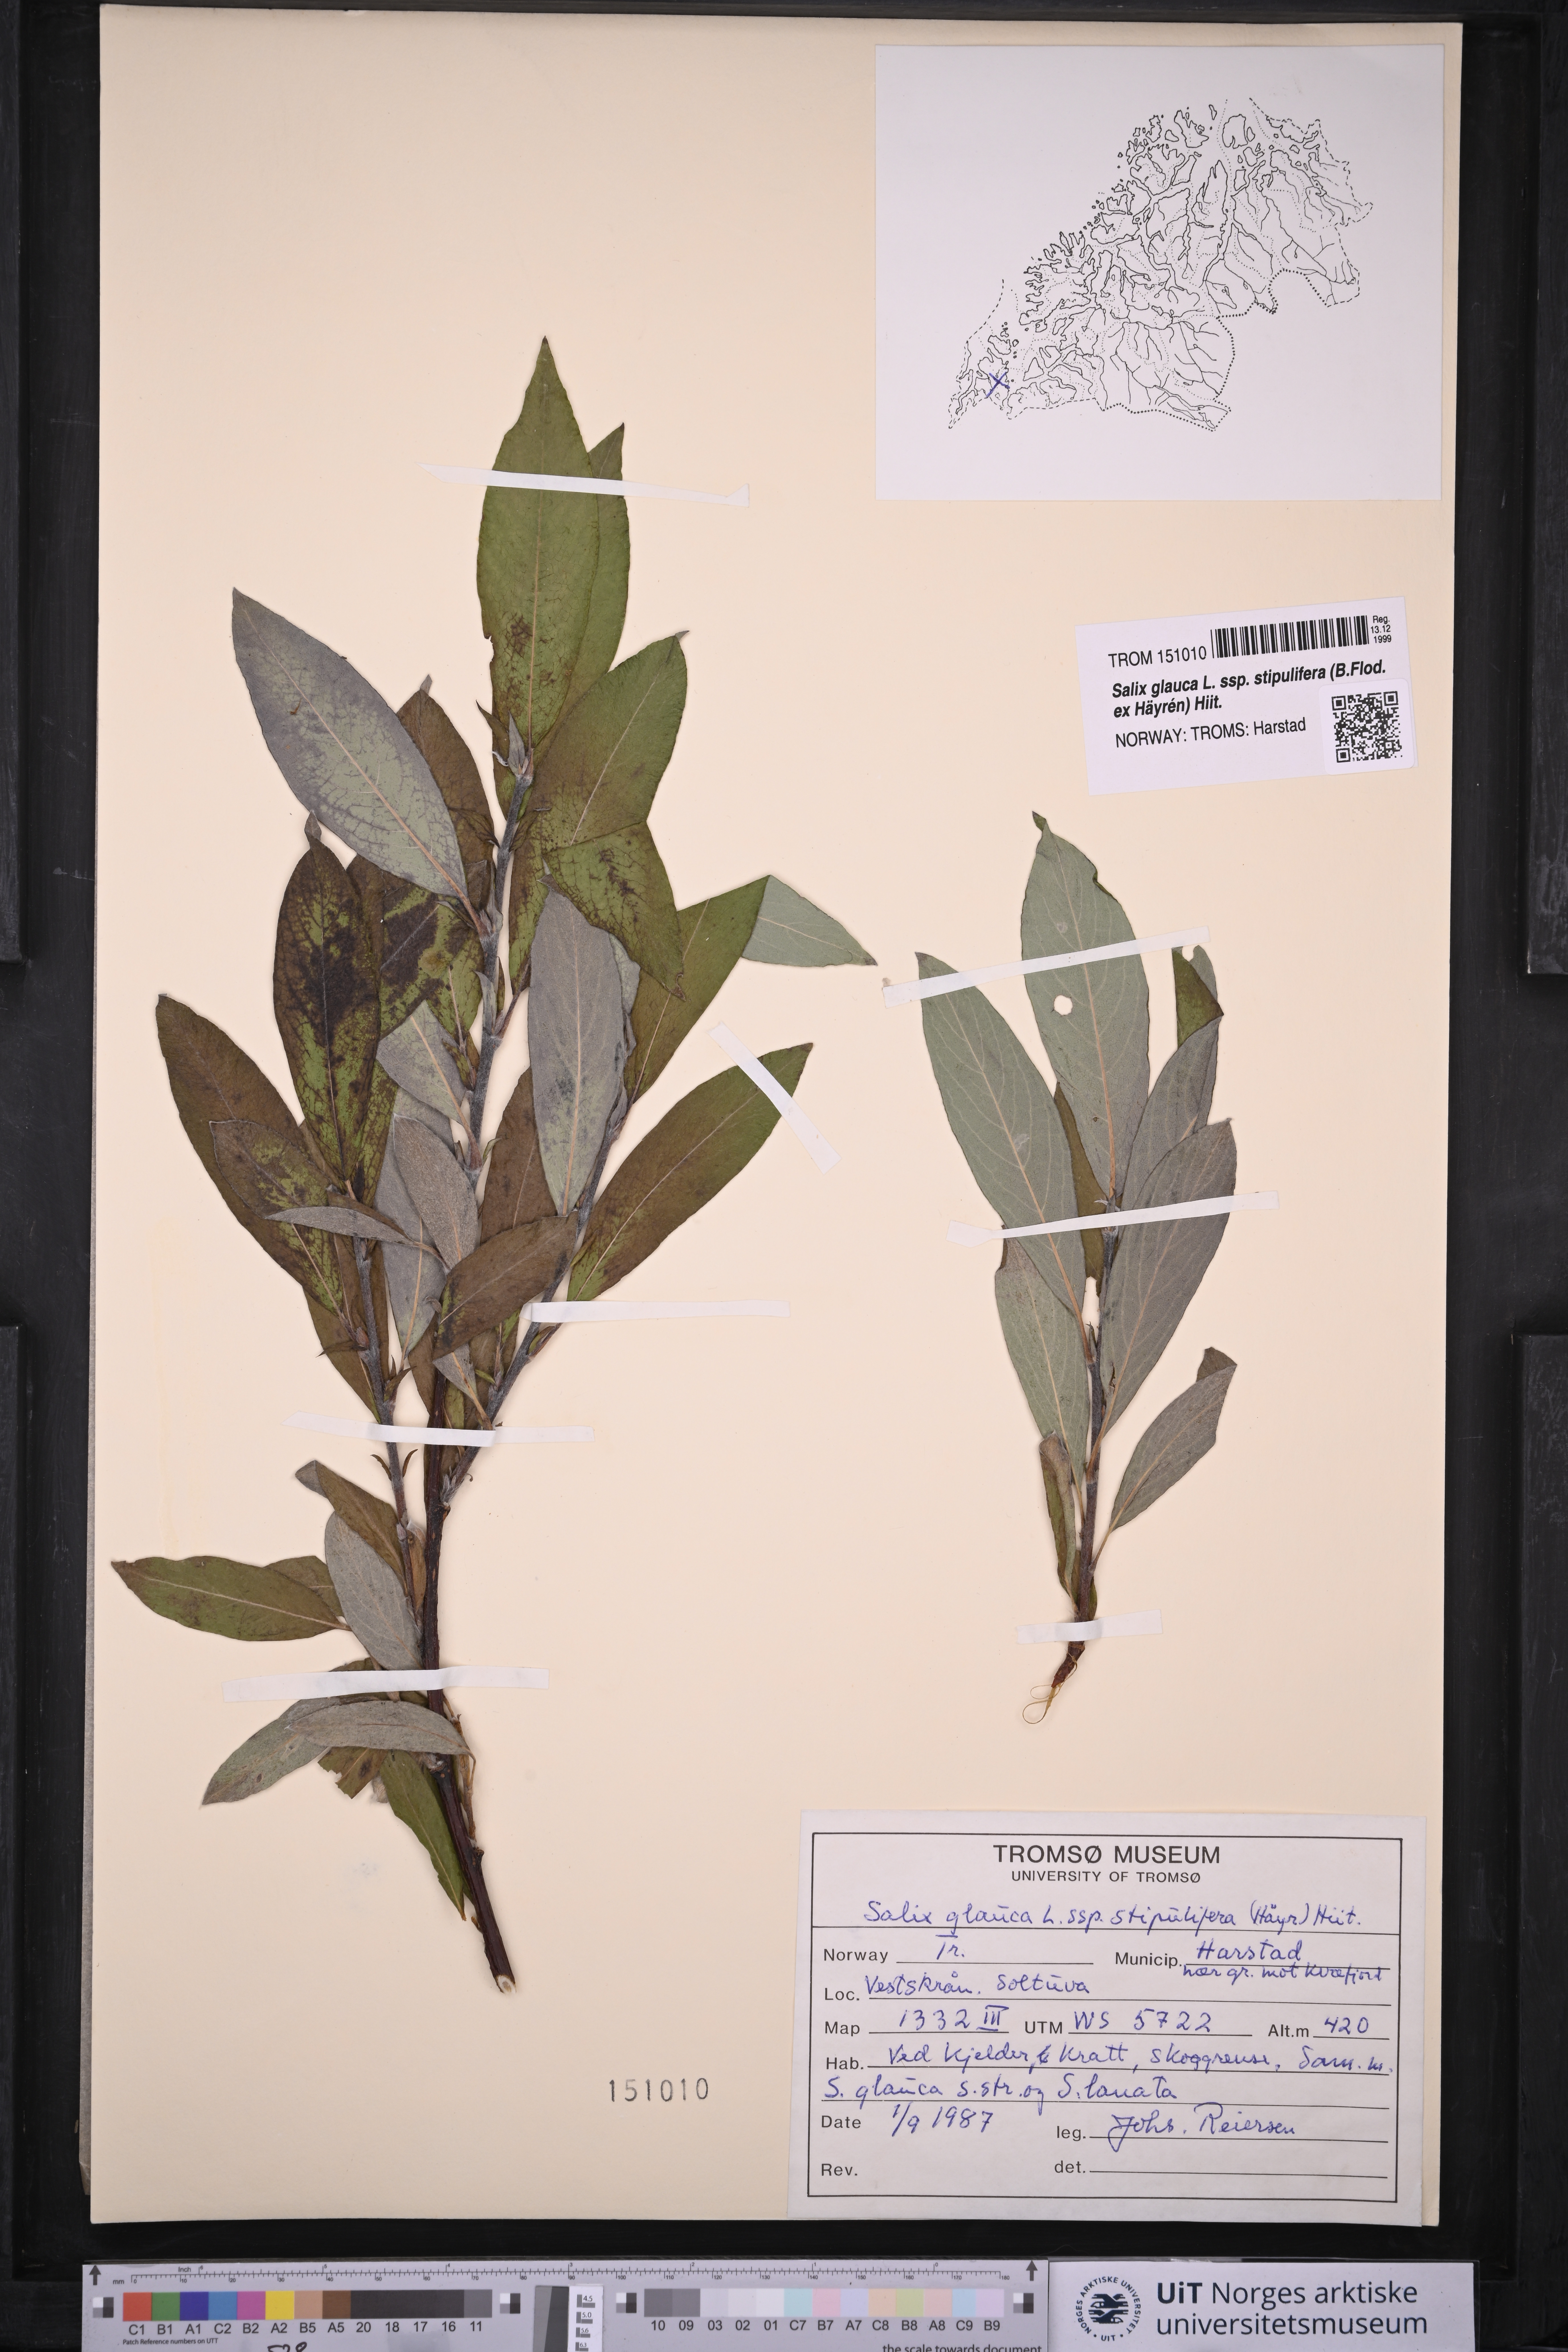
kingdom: Plantae
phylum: Tracheophyta
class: Magnoliopsida
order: Malpighiales
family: Salicaceae
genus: Salix
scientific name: Salix glauca
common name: Glaucous willow
